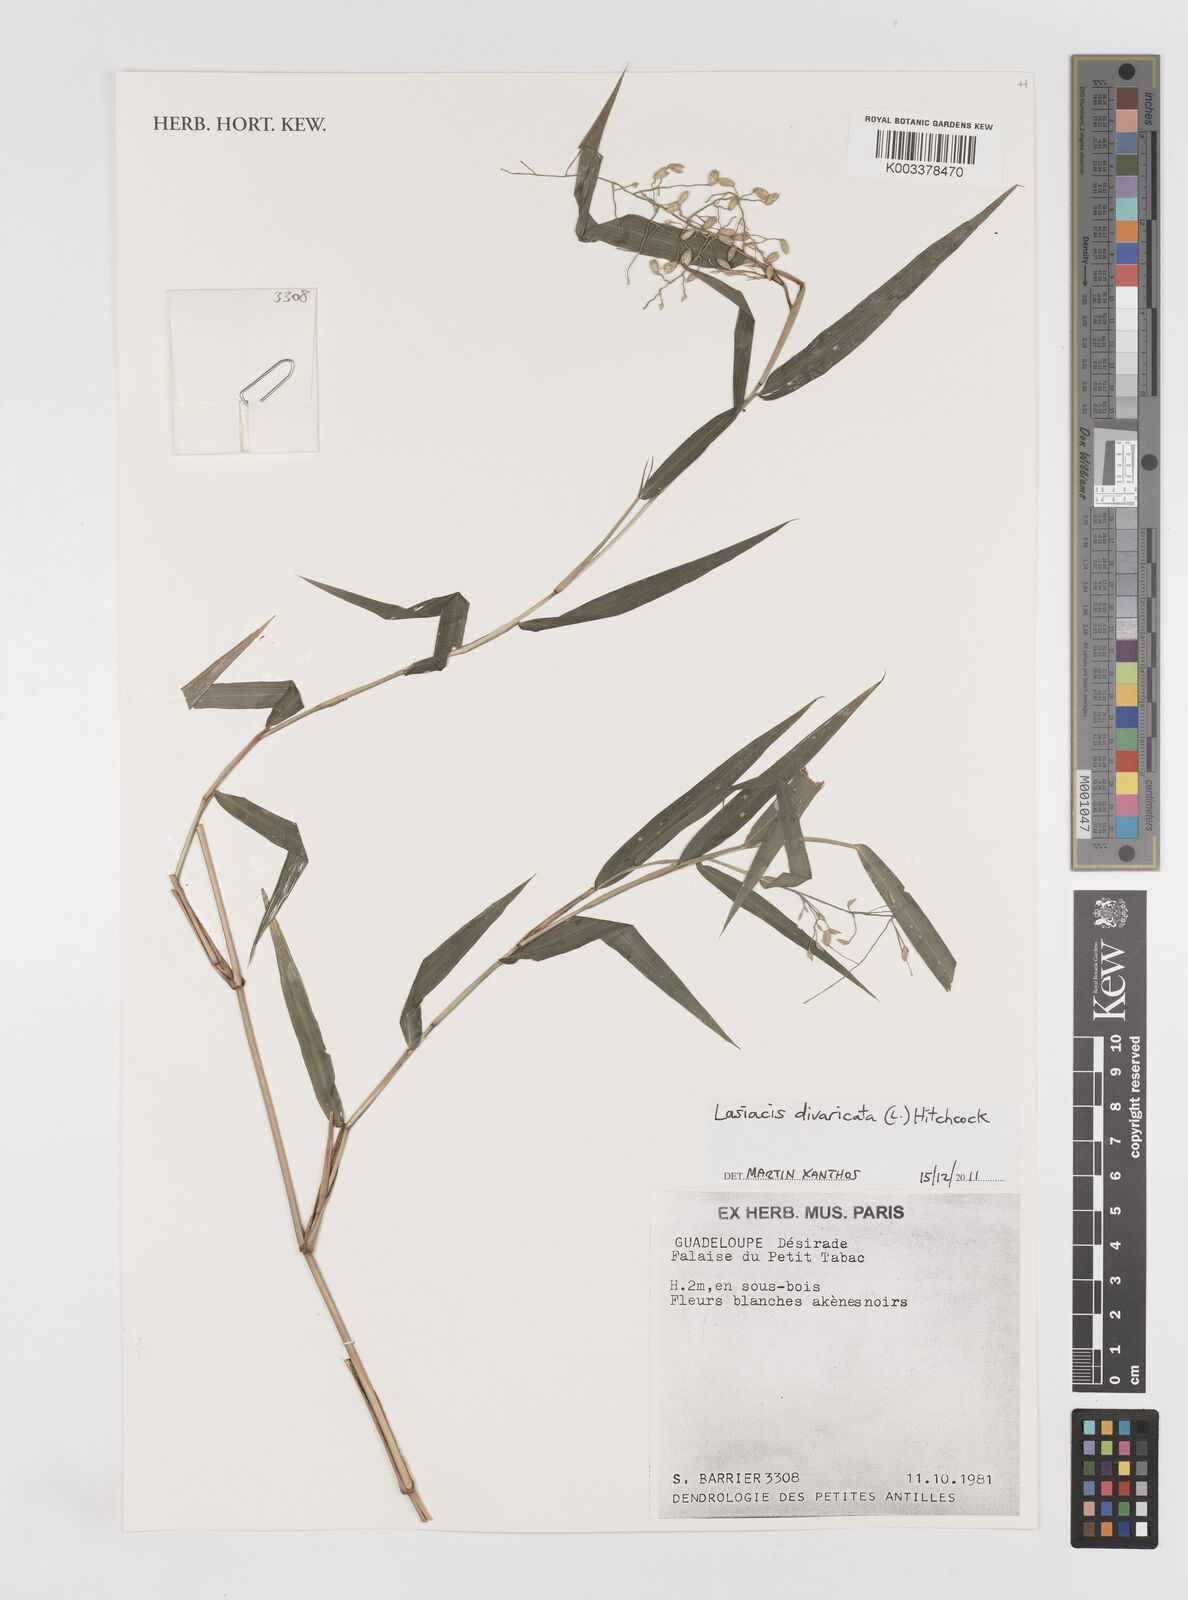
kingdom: Plantae
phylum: Tracheophyta
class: Liliopsida
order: Poales
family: Poaceae
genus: Lasiacis
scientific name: Lasiacis divaricata
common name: Smallcane
